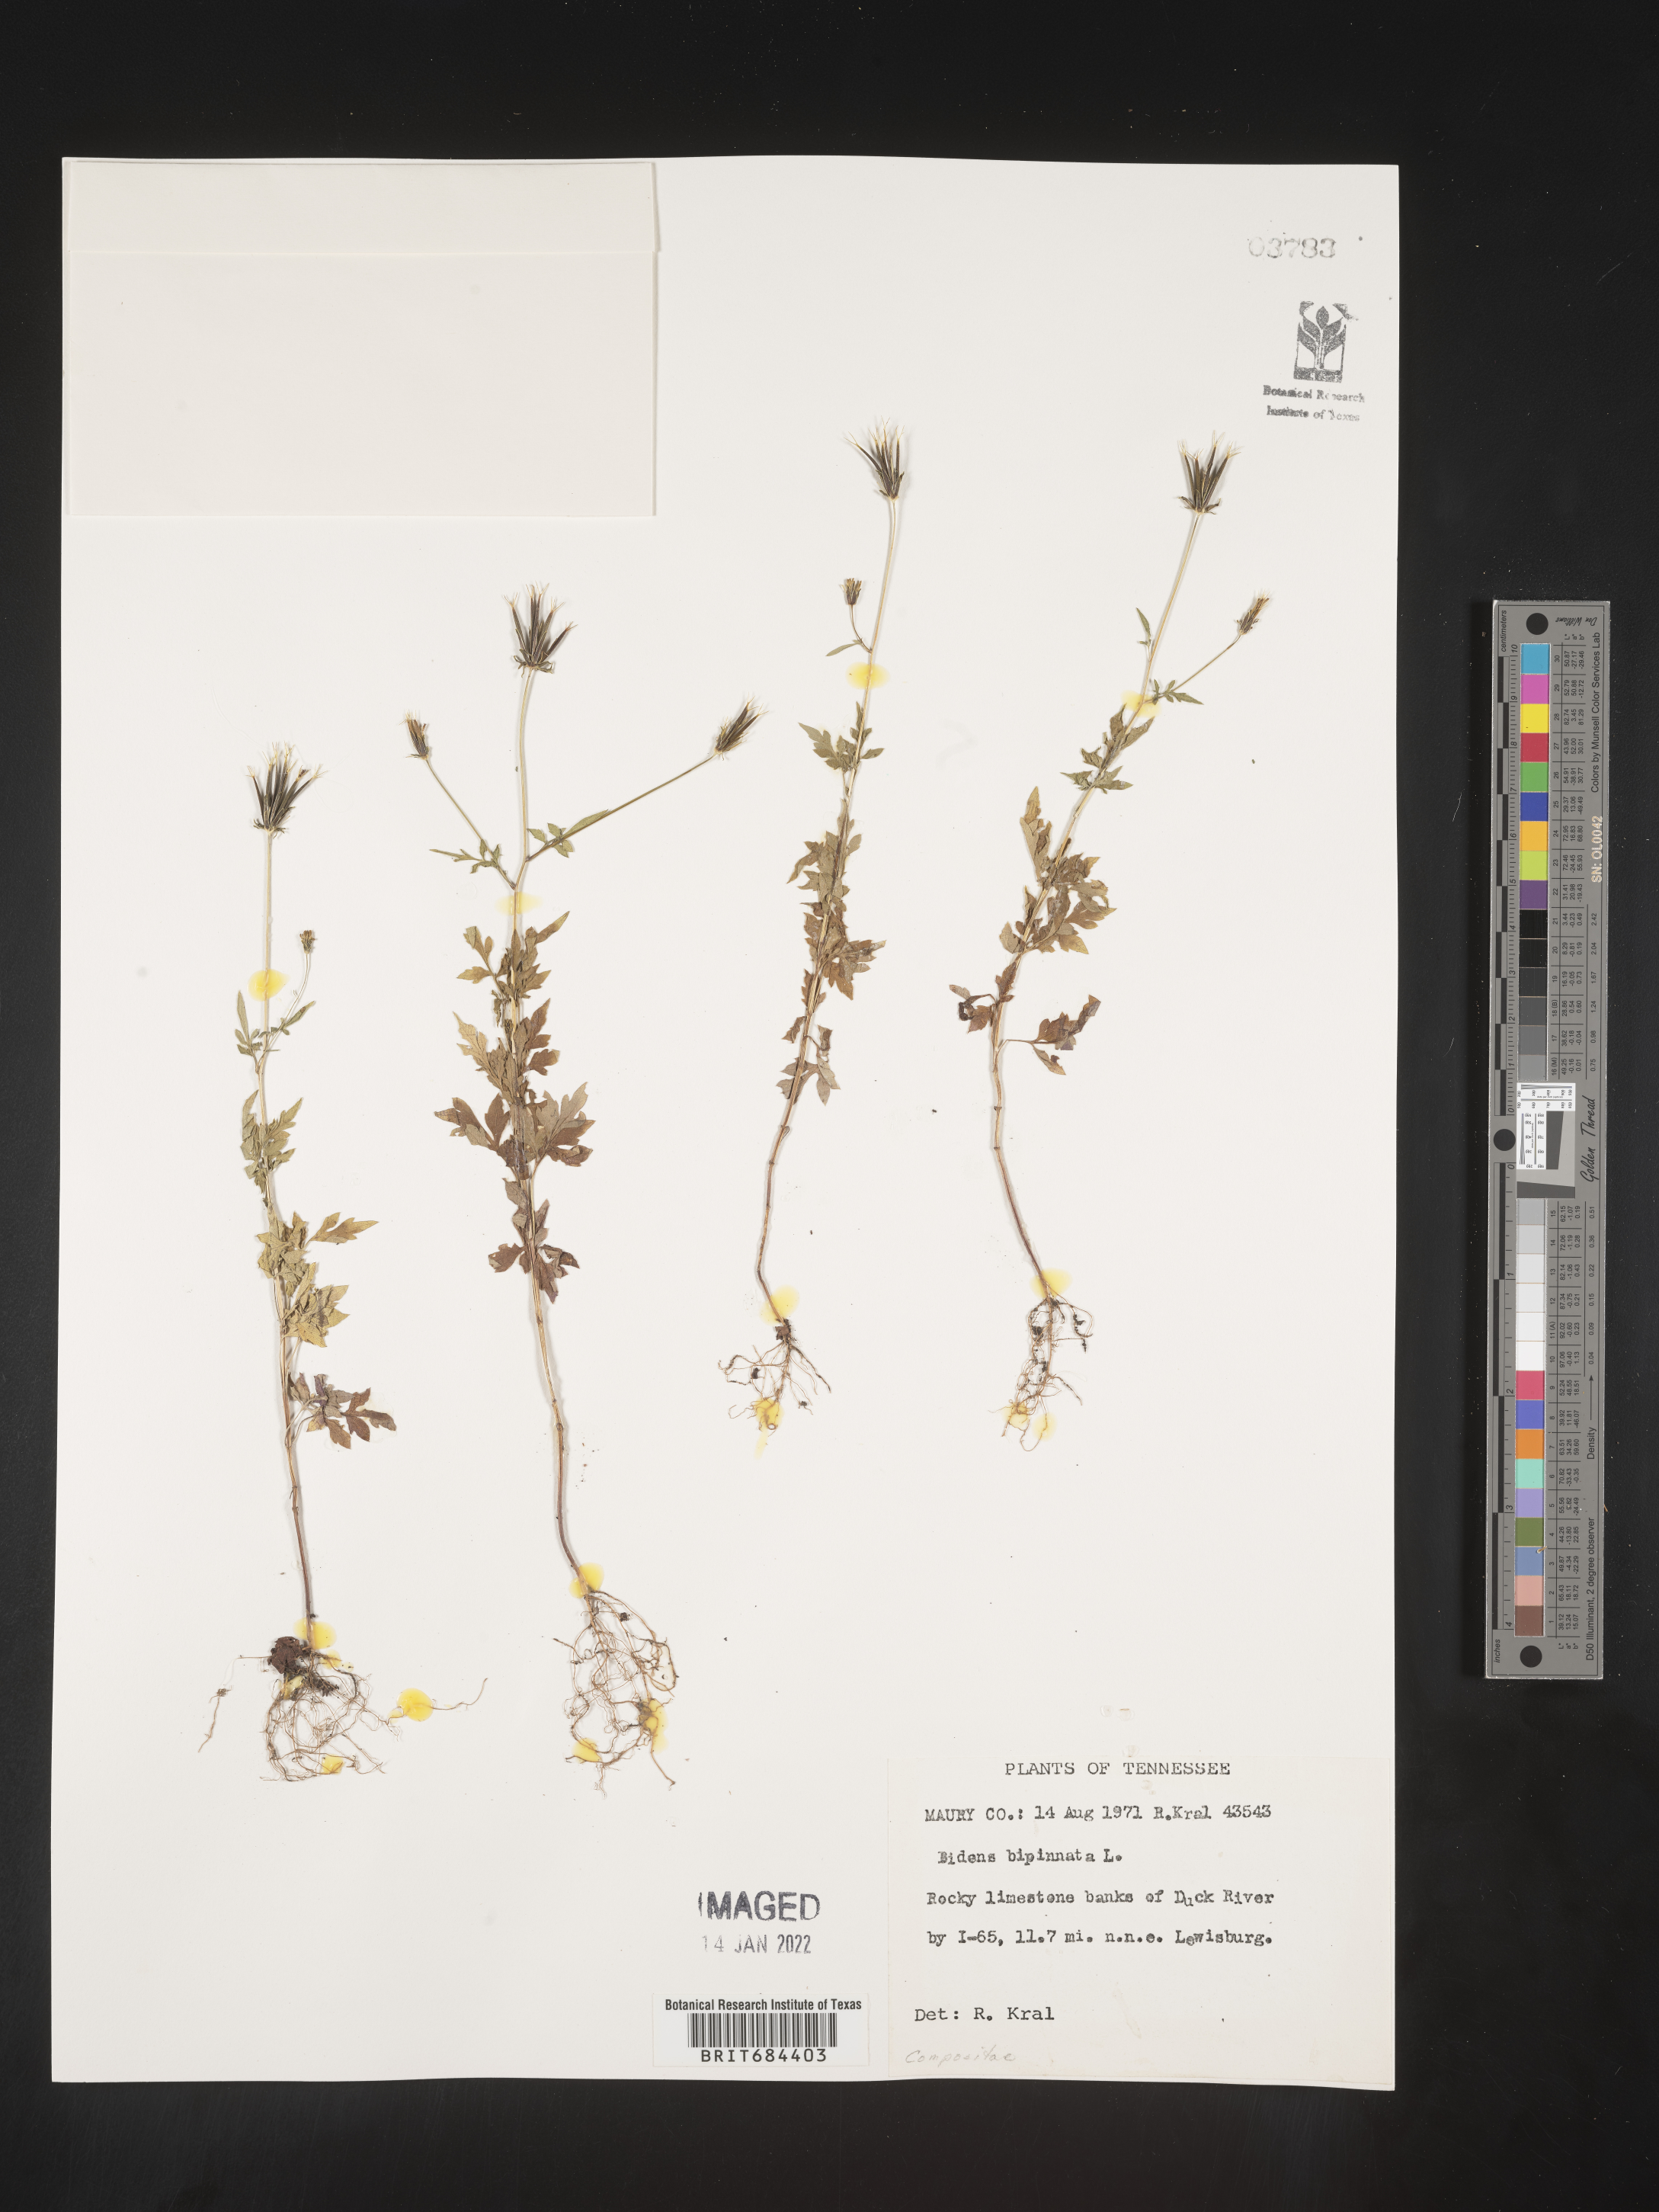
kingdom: Plantae
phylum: Tracheophyta
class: Magnoliopsida
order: Asterales
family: Asteraceae
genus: Bidens
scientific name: Bidens bipinnata
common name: Spanish-needles
